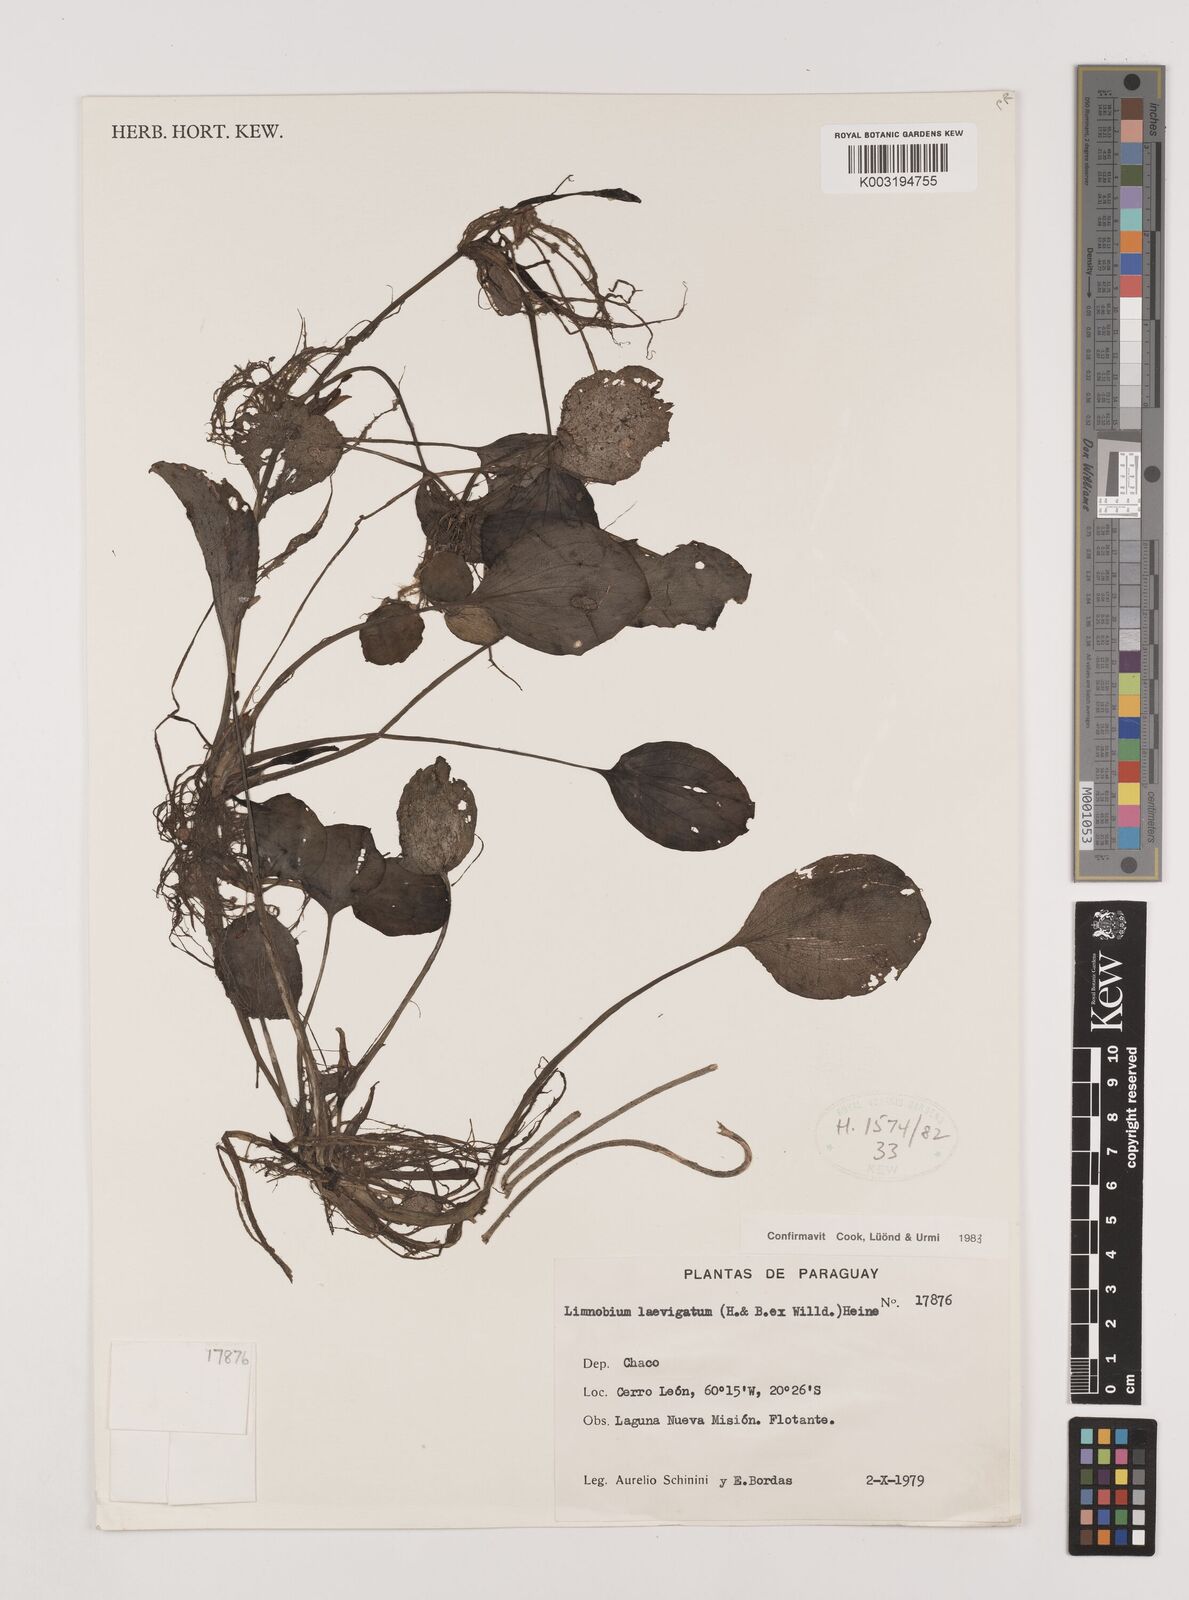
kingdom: Plantae
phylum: Tracheophyta
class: Liliopsida
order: Alismatales
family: Hydrocharitaceae
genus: Hydrocharis
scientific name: Hydrocharis laevigata
